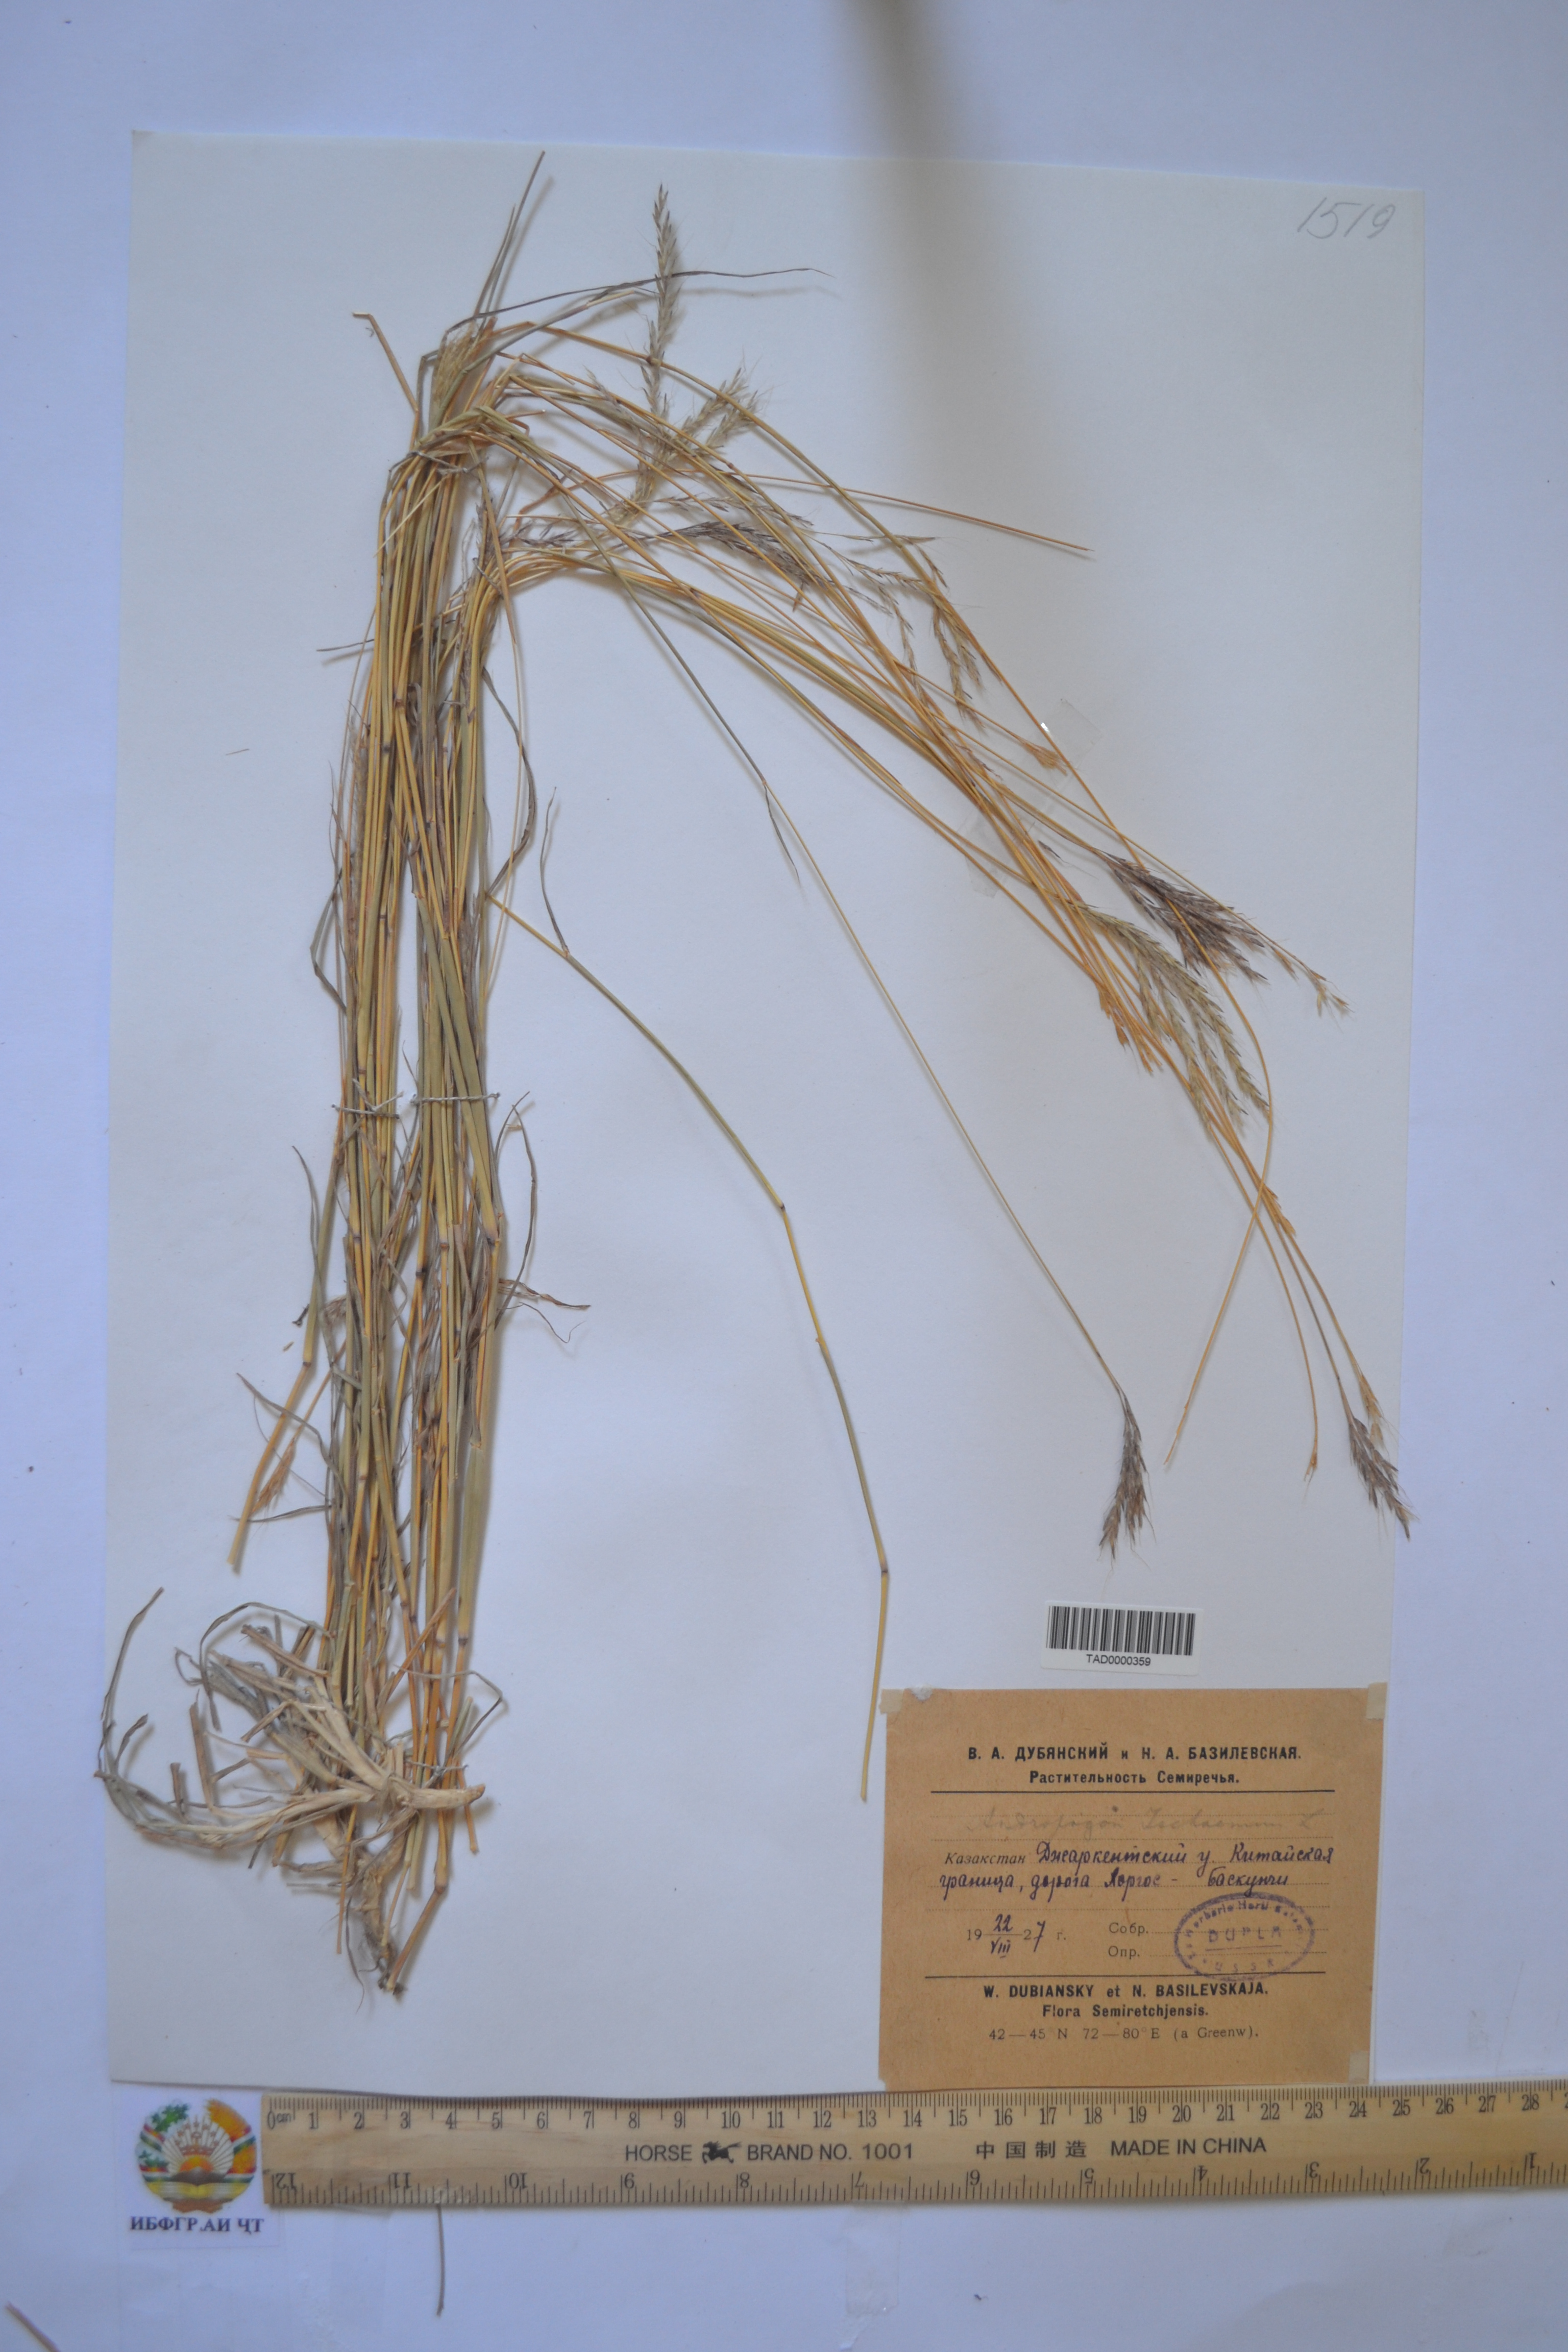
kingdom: Plantae
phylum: Tracheophyta
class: Liliopsida
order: Poales
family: Poaceae
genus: Andropogon
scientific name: Andropogon ischaemum
